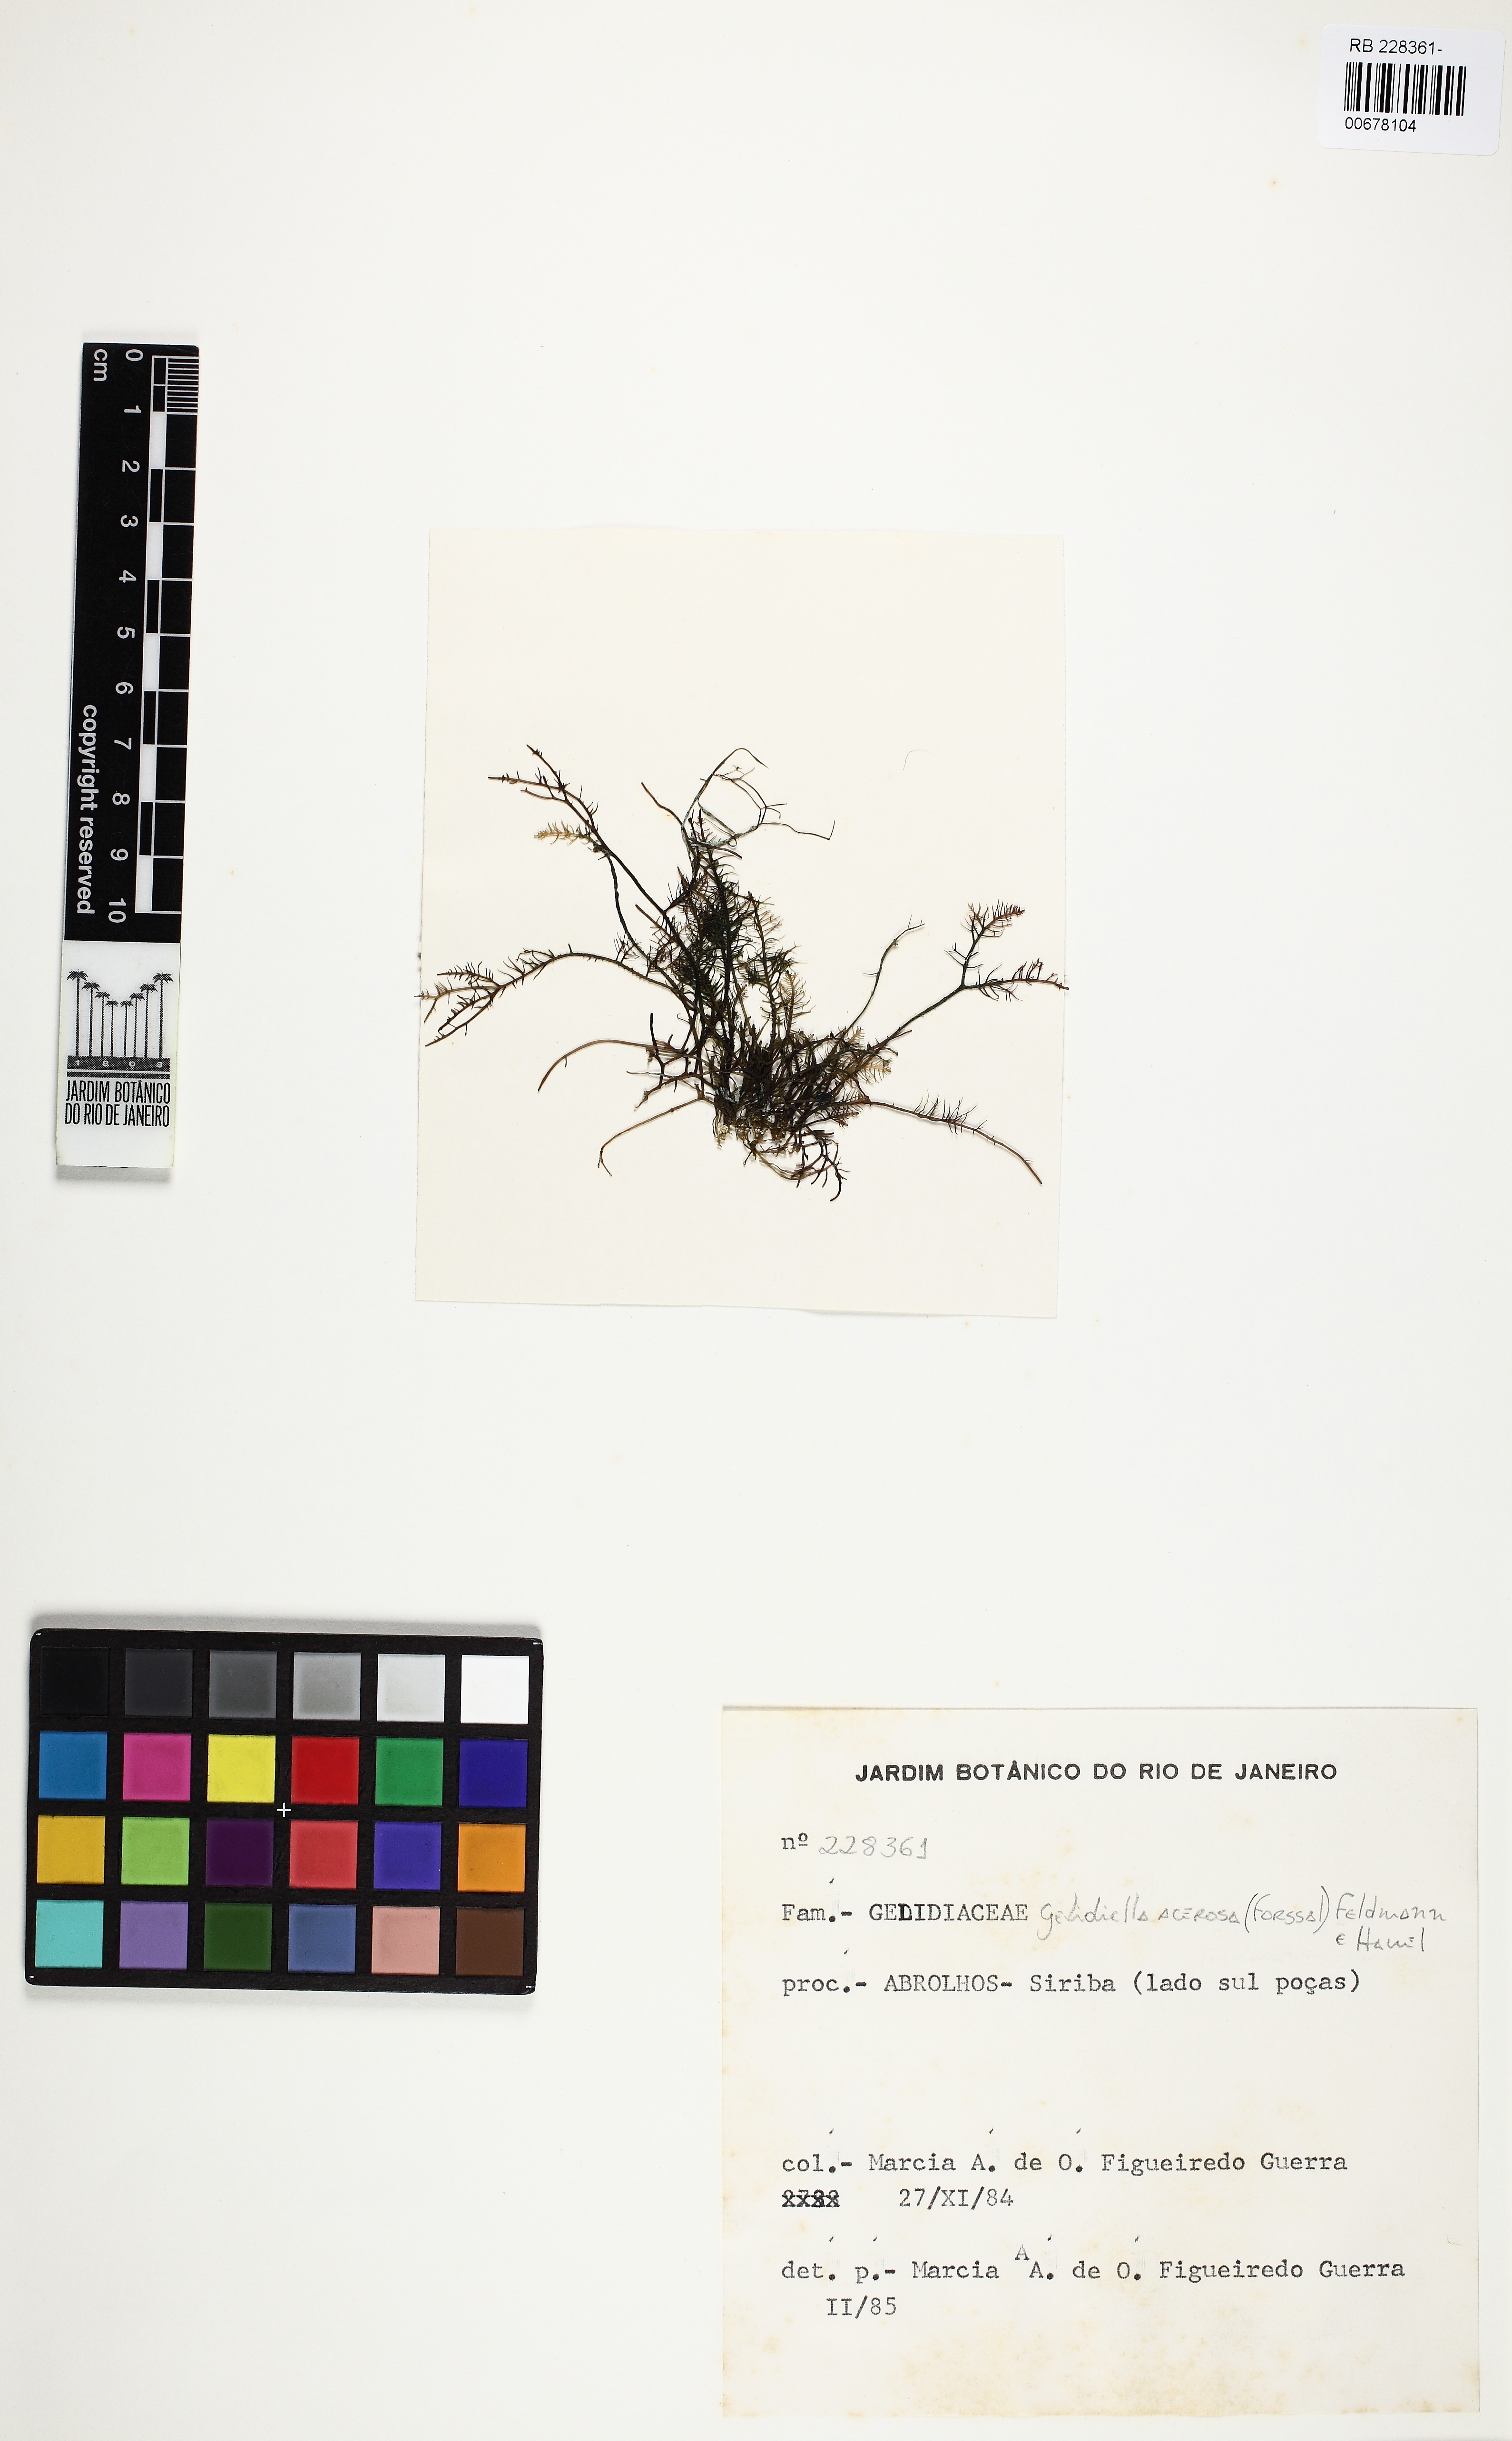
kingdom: Plantae
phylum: Rhodophyta
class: Florideophyceae
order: Gelidiales
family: Gelidiellaceae
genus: Gelidiella
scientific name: Gelidiella acerosa
